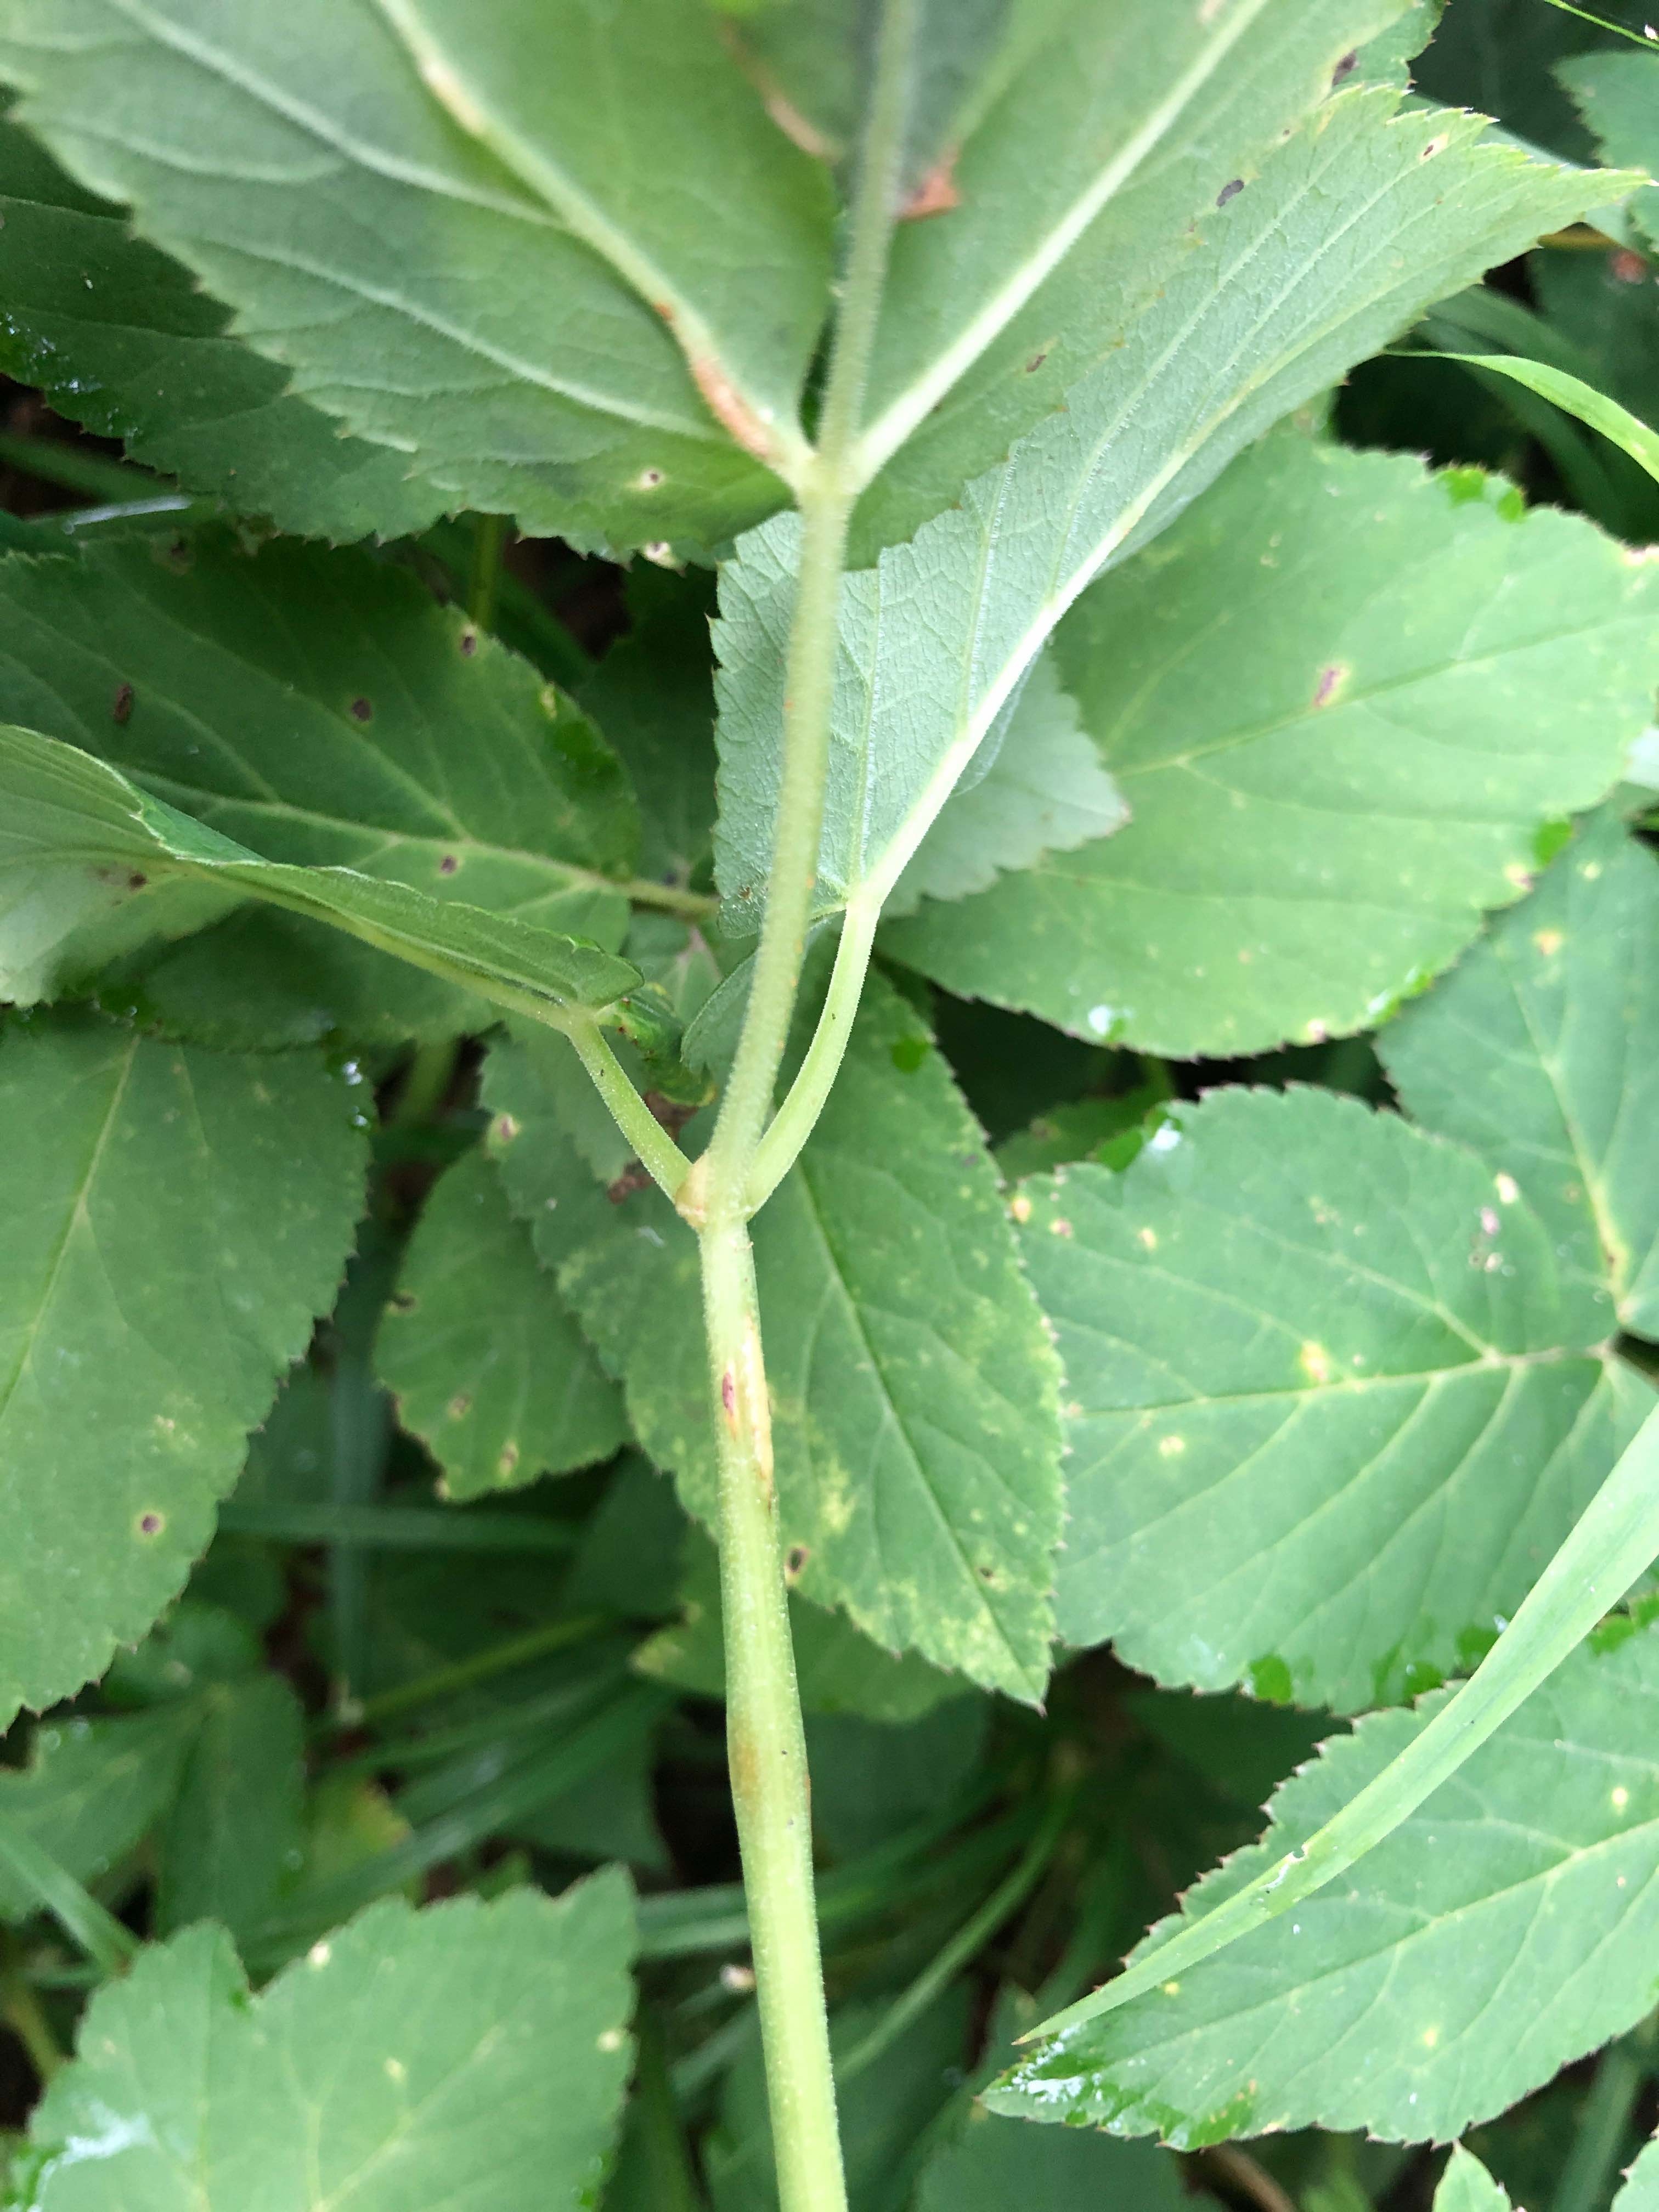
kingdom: Fungi
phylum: Ascomycota
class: Taphrinomycetes
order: Taphrinales
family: Taphrinaceae
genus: Protomyces
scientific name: Protomyces macrosporus
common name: skvalderkål-vablesæk
